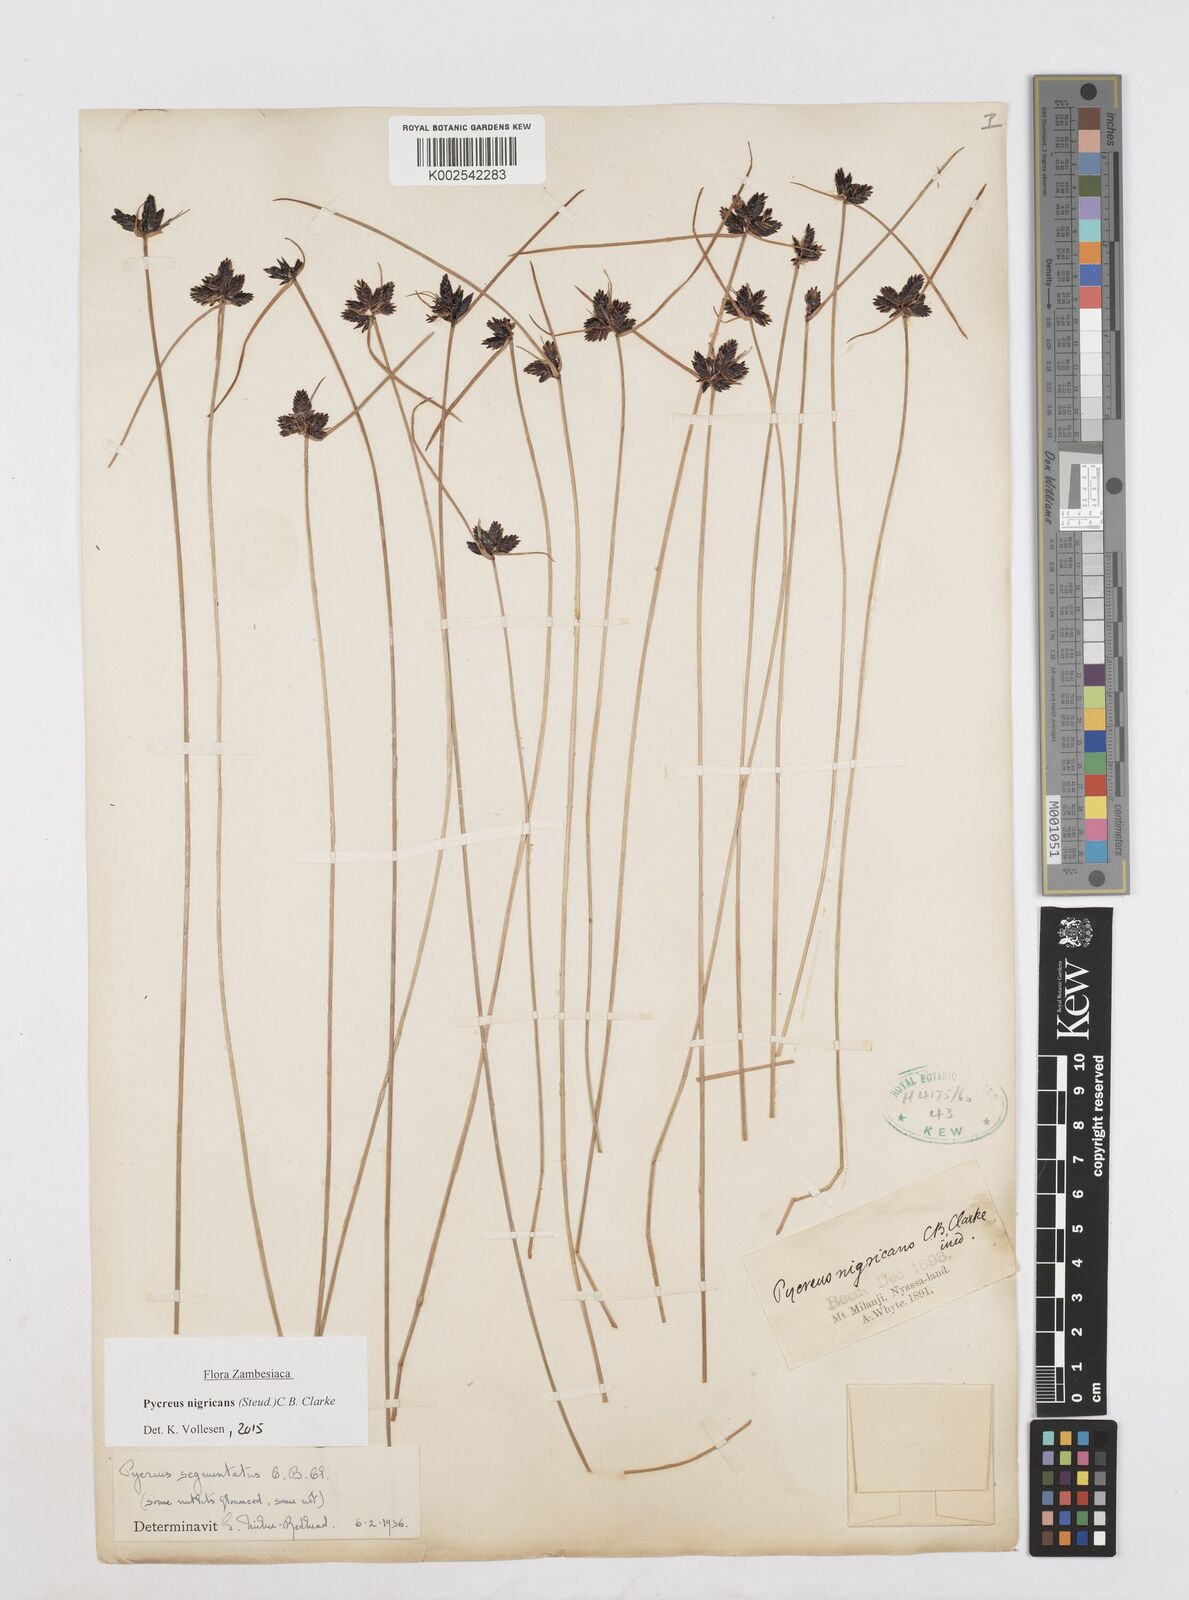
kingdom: Plantae
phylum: Tracheophyta
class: Liliopsida
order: Poales
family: Cyperaceae
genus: Cyperus
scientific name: Cyperus nigricans
